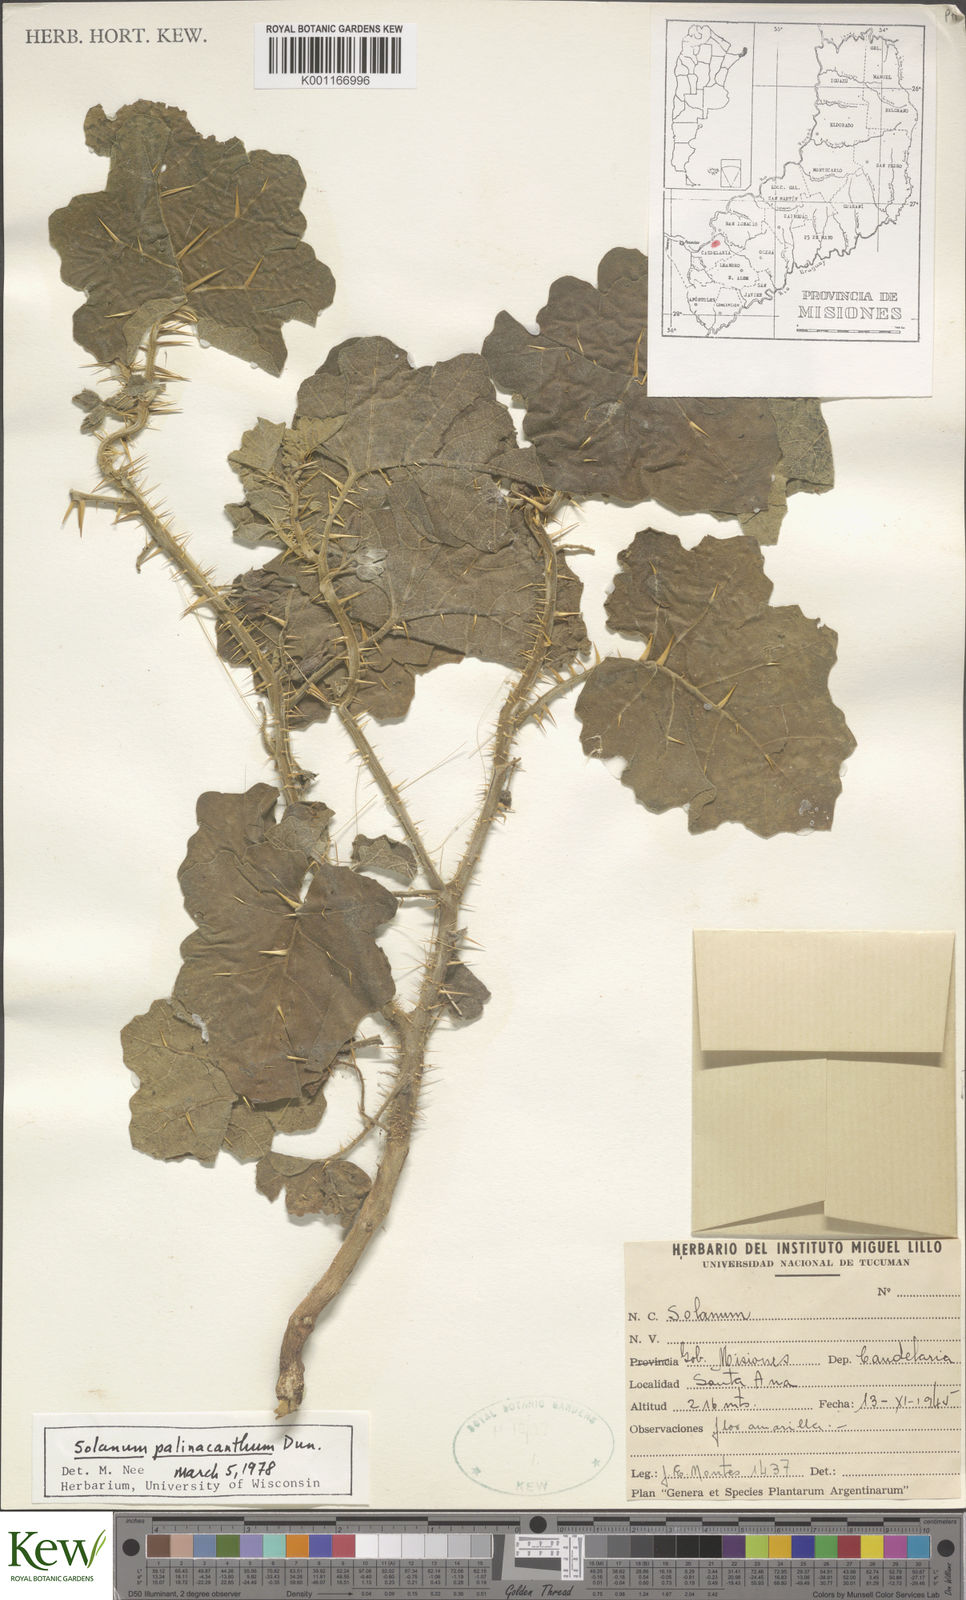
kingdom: Plantae
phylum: Tracheophyta
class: Magnoliopsida
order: Solanales
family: Solanaceae
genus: Solanum
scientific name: Solanum palinacanthum
